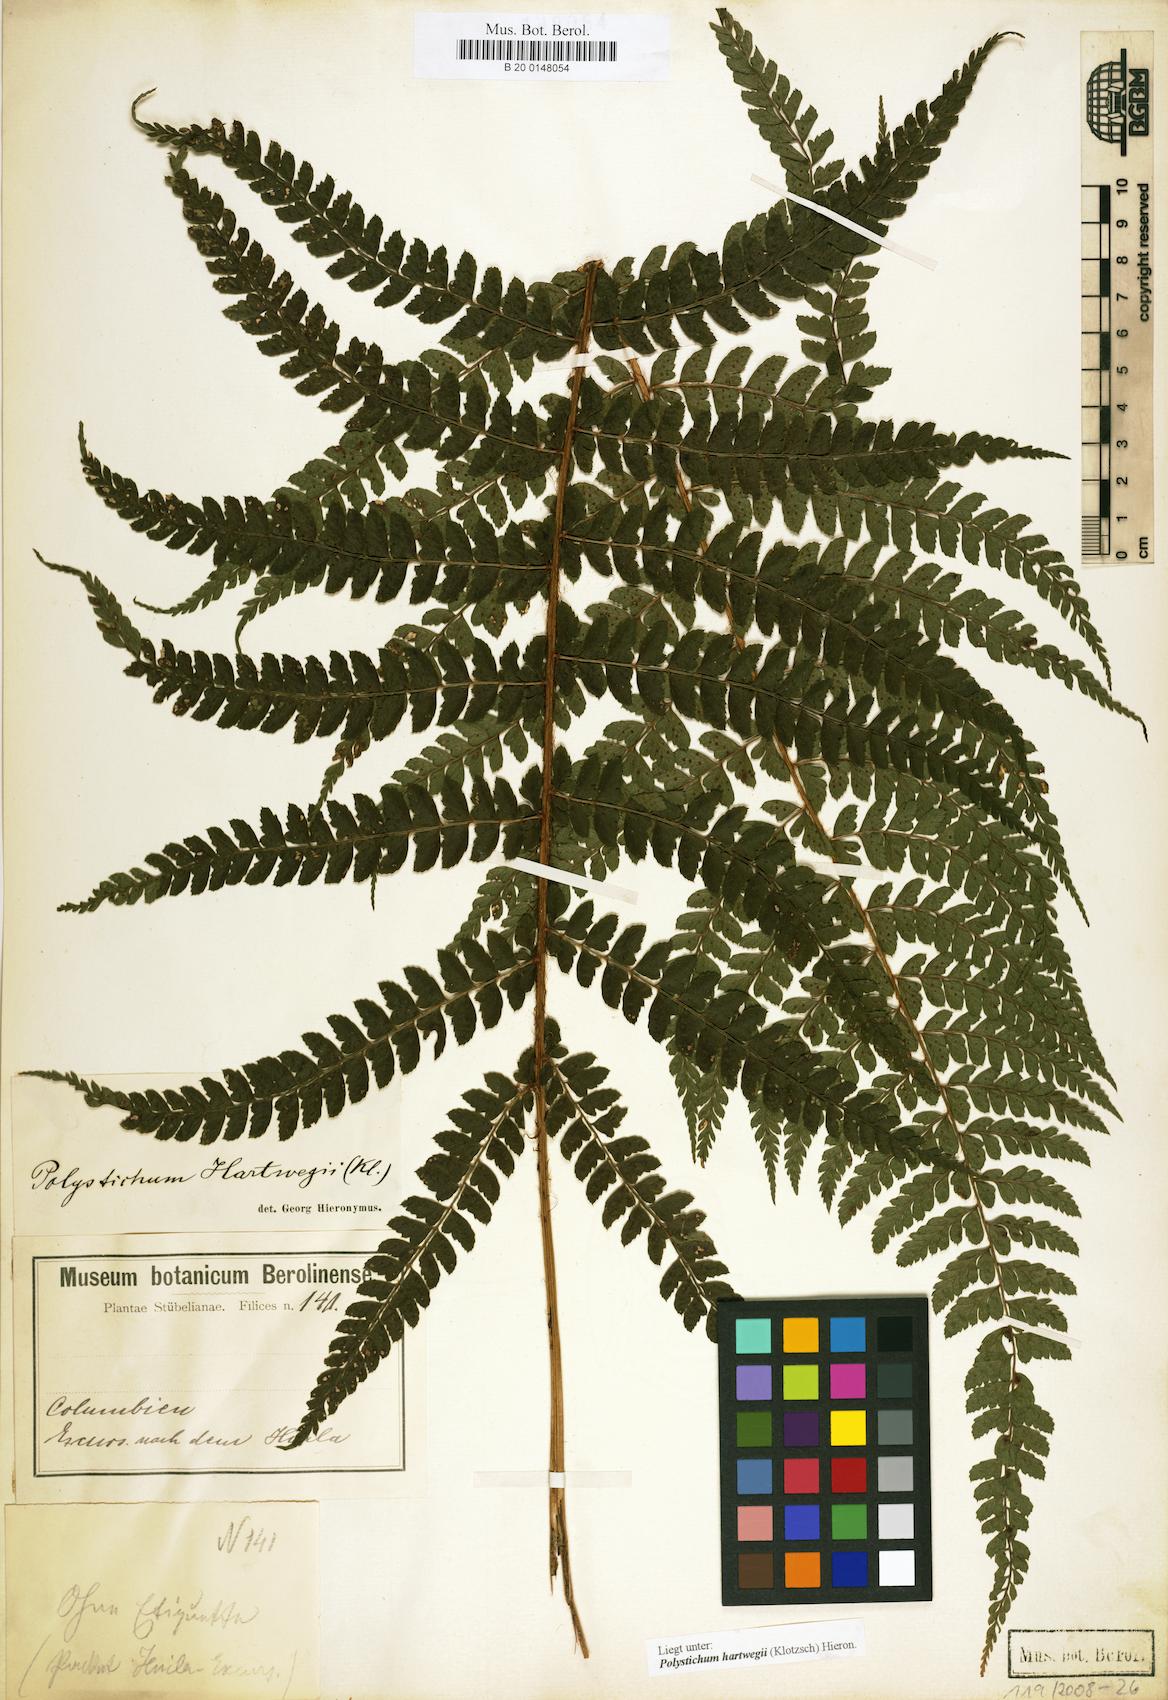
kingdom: Plantae
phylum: Tracheophyta
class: Polypodiopsida
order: Polypodiales
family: Dryopteridaceae
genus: Polystichum
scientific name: Polystichum hartwegii
